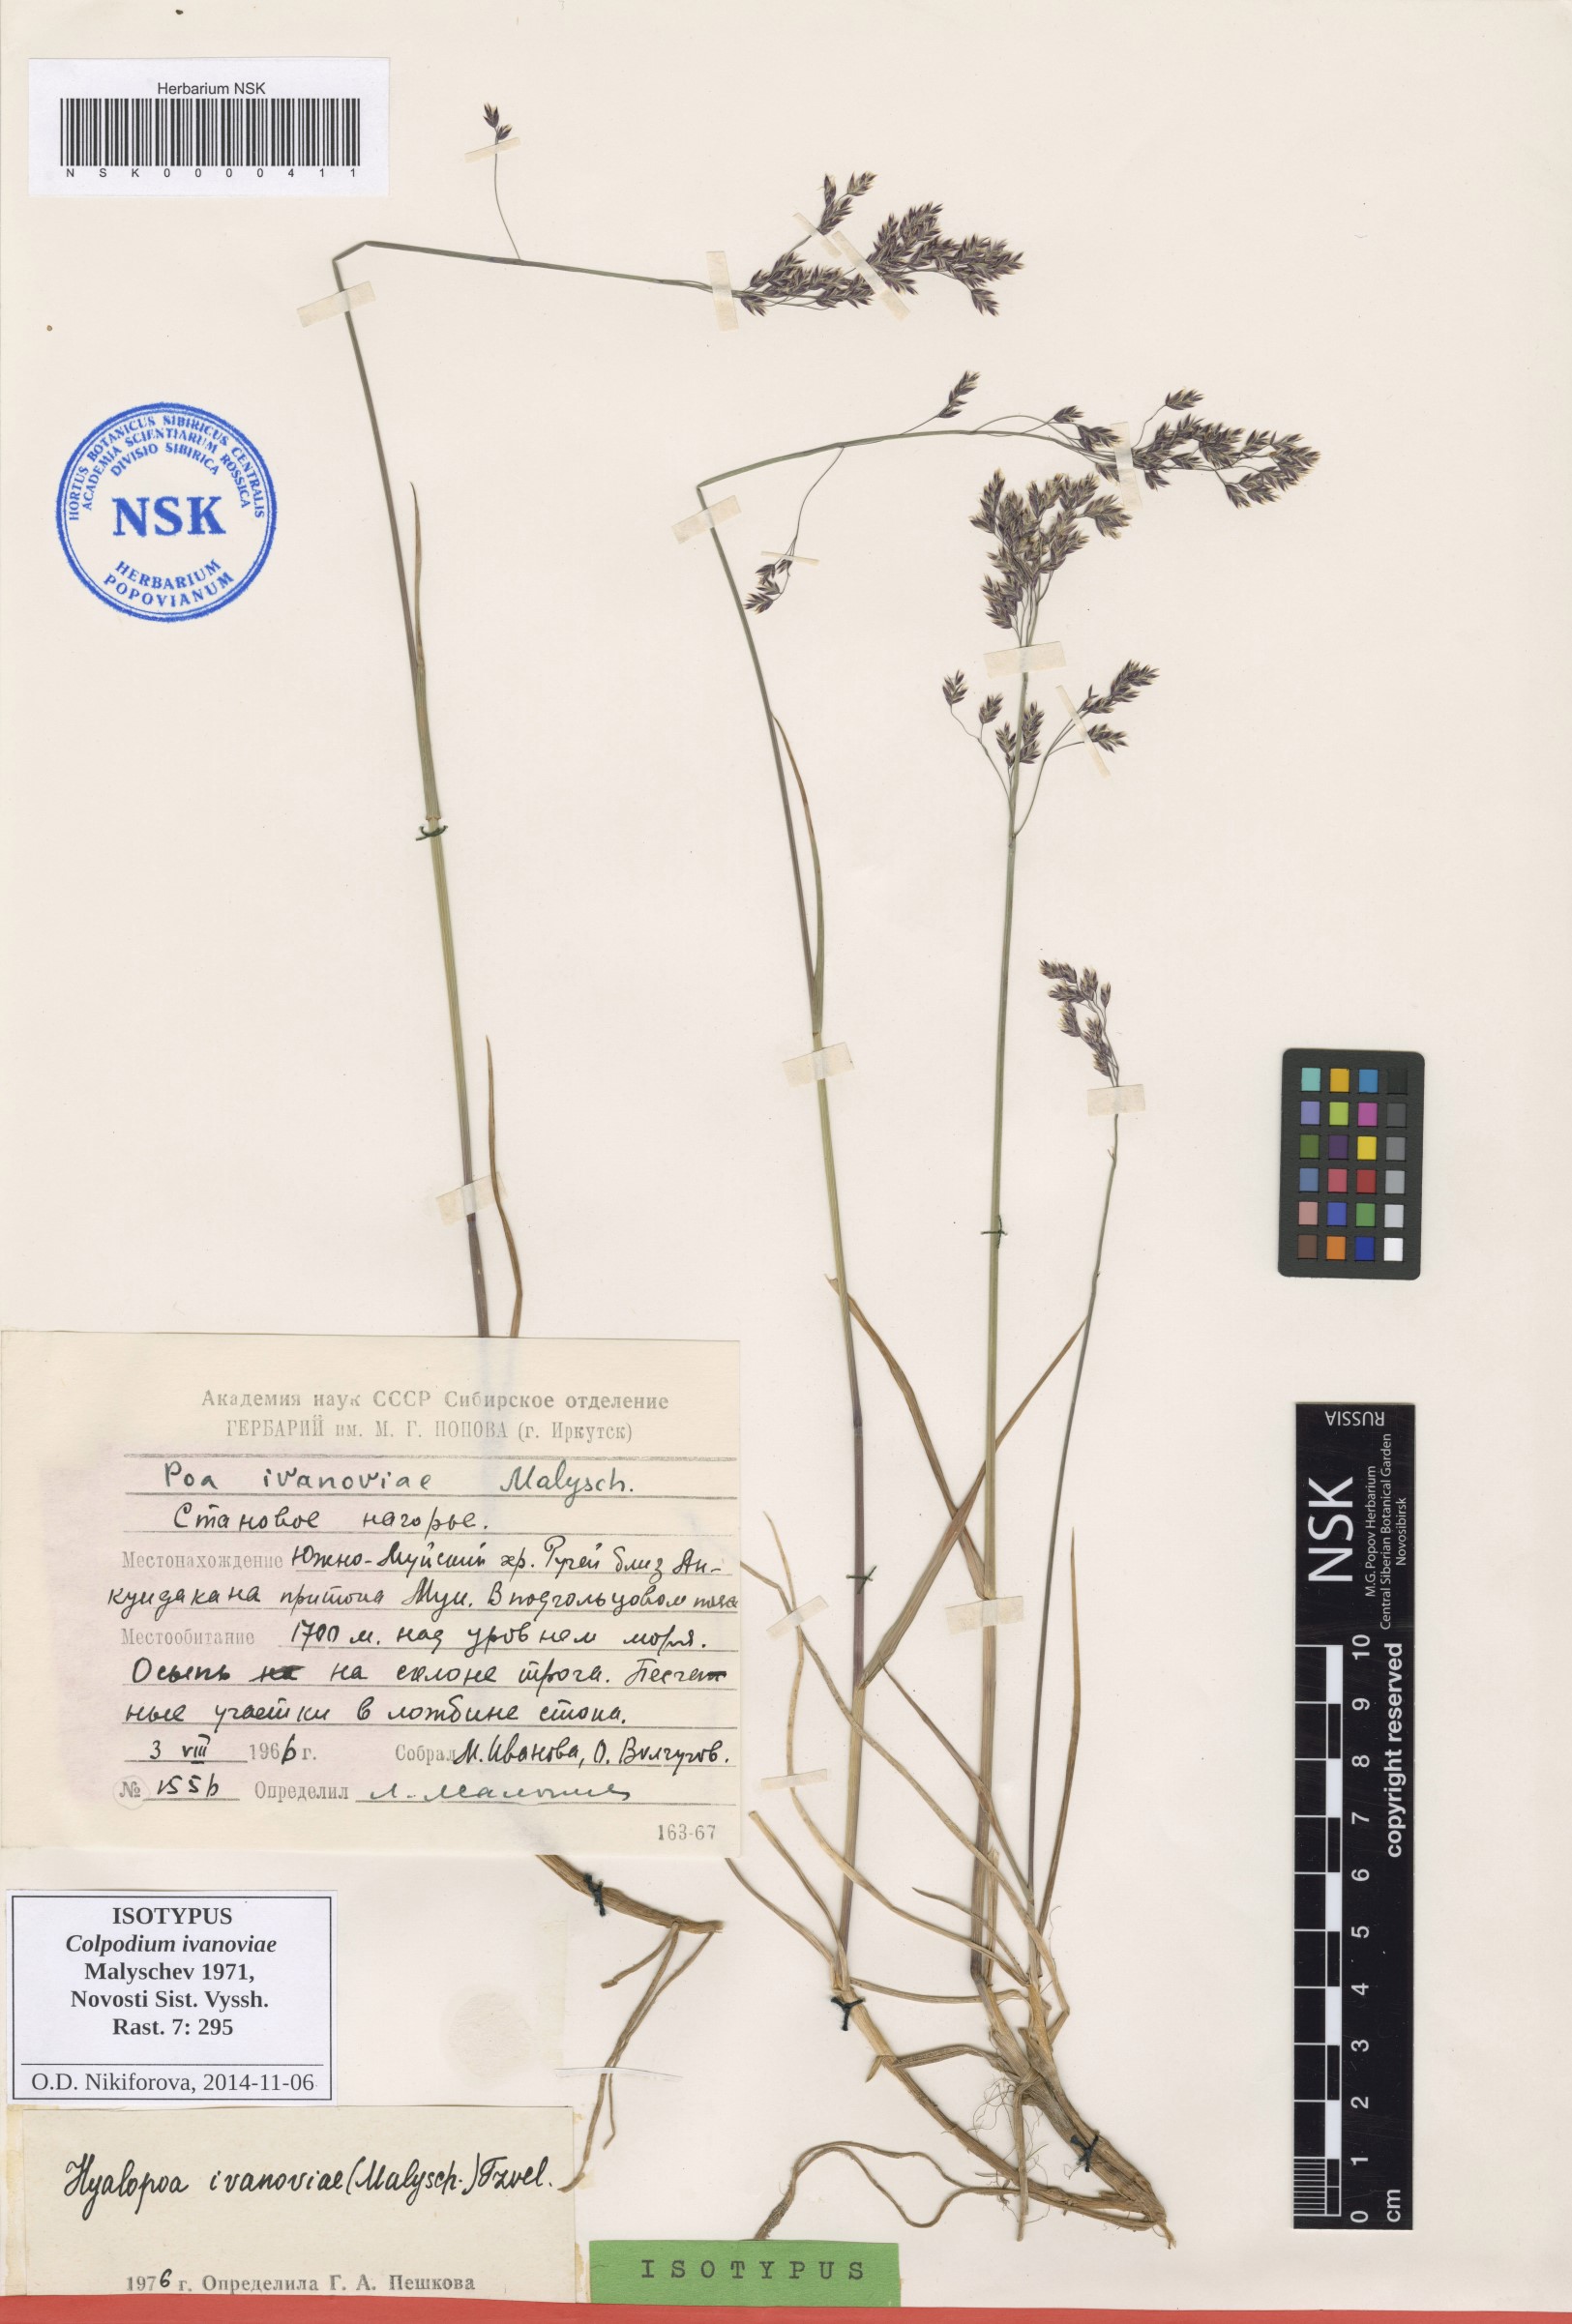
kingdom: Plantae
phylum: Tracheophyta
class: Liliopsida
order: Poales
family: Poaceae
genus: Arctohyalopoa
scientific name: Arctohyalopoa lanatiflora
